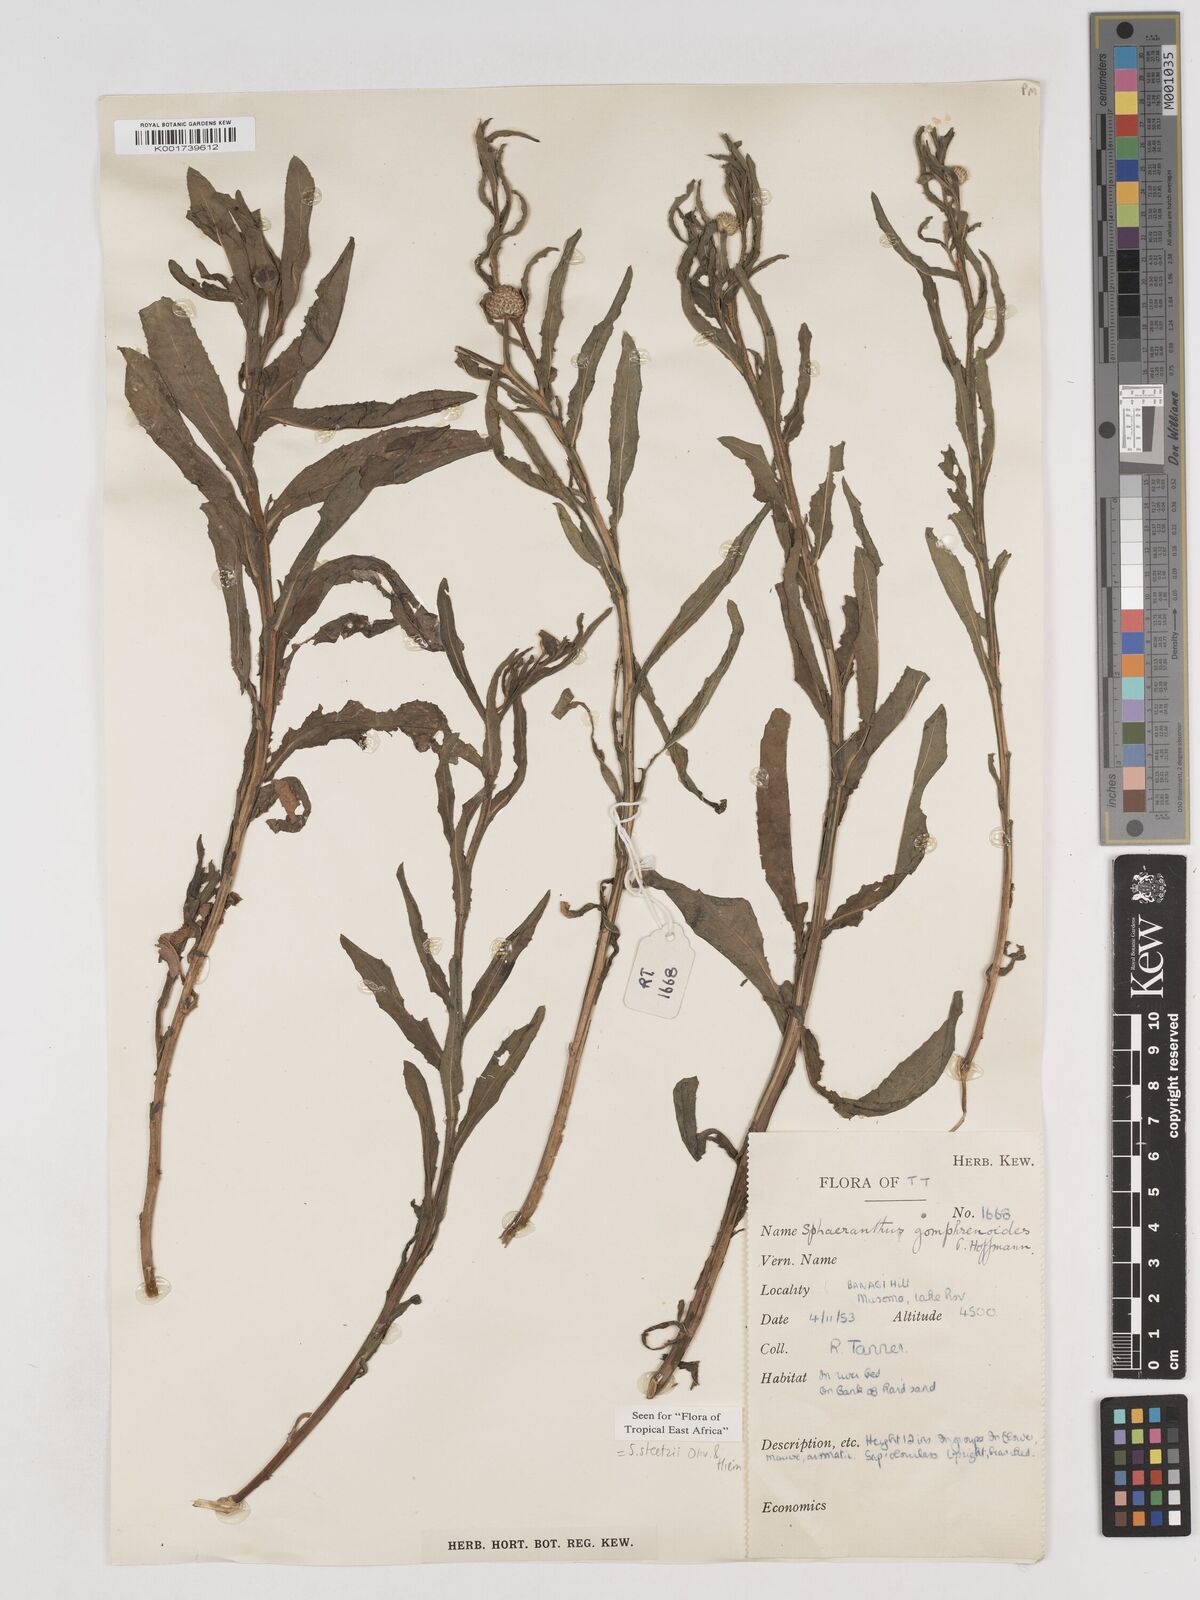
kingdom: Plantae
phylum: Tracheophyta
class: Magnoliopsida
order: Asterales
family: Asteraceae
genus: Sphaeranthus
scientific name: Sphaeranthus steetzii
